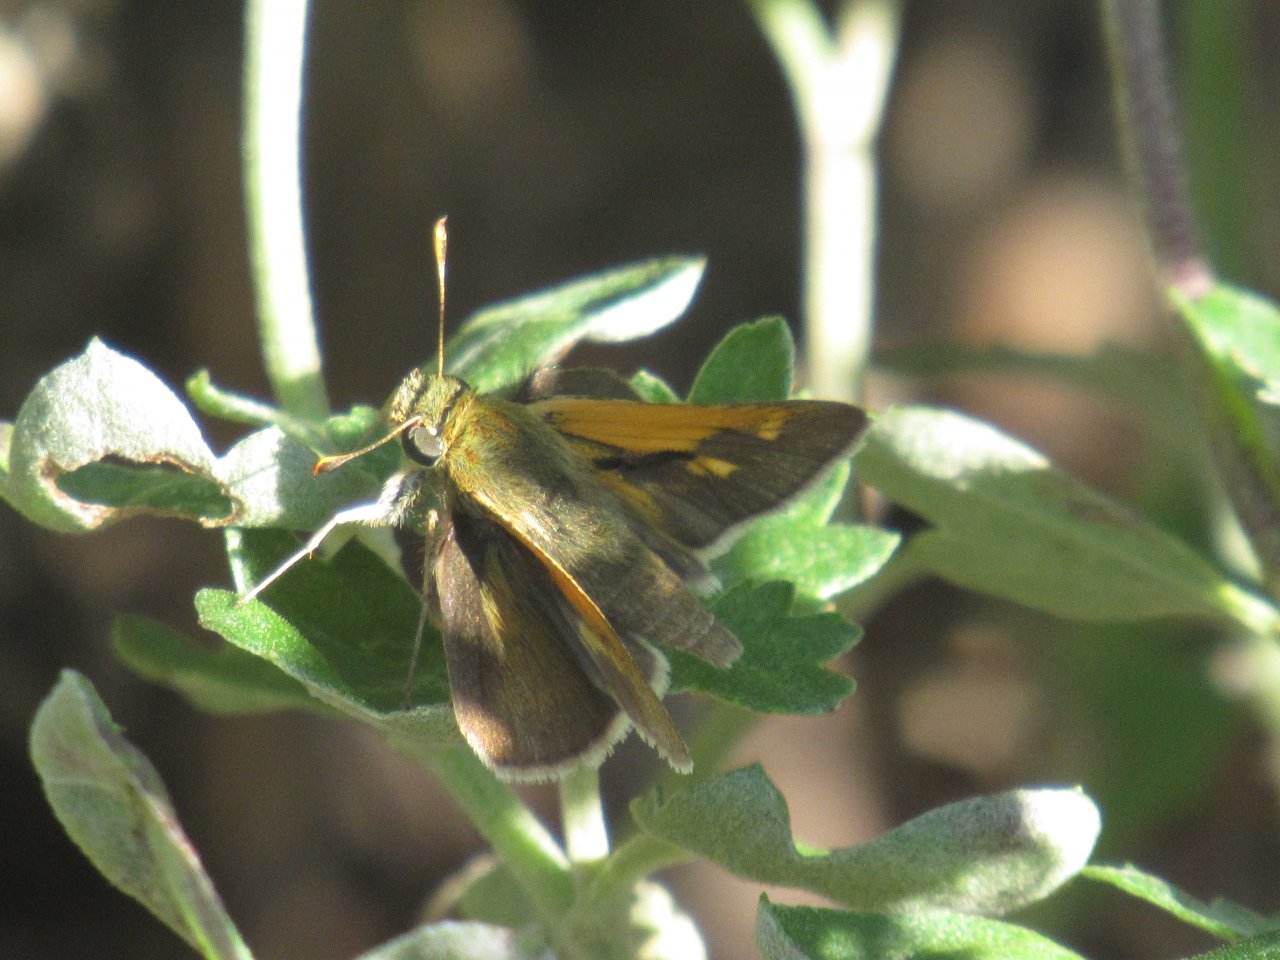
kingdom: Animalia
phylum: Arthropoda
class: Insecta
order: Lepidoptera
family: Hesperiidae
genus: Polites
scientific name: Polites themistocles
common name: Tawny-edged Skipper
